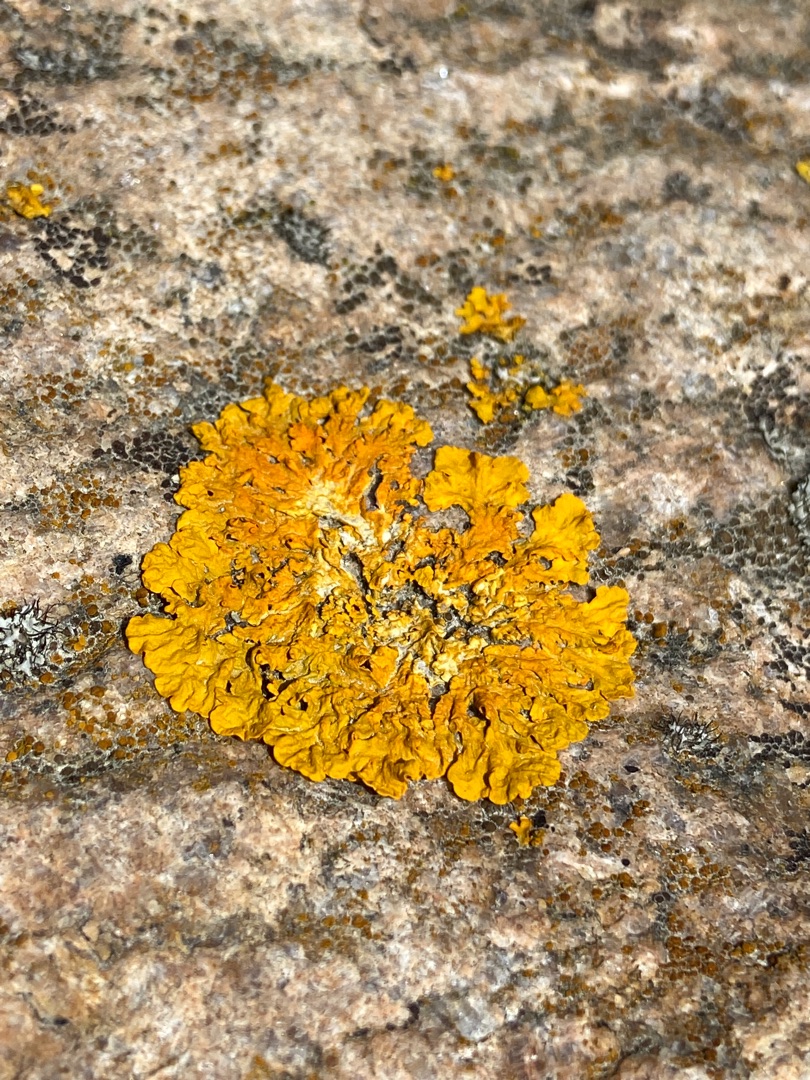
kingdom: Fungi
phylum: Ascomycota
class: Lecanoromycetes
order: Teloschistales
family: Teloschistaceae
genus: Xanthoria
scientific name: Xanthoria parietina
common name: Almindelig væggelav
